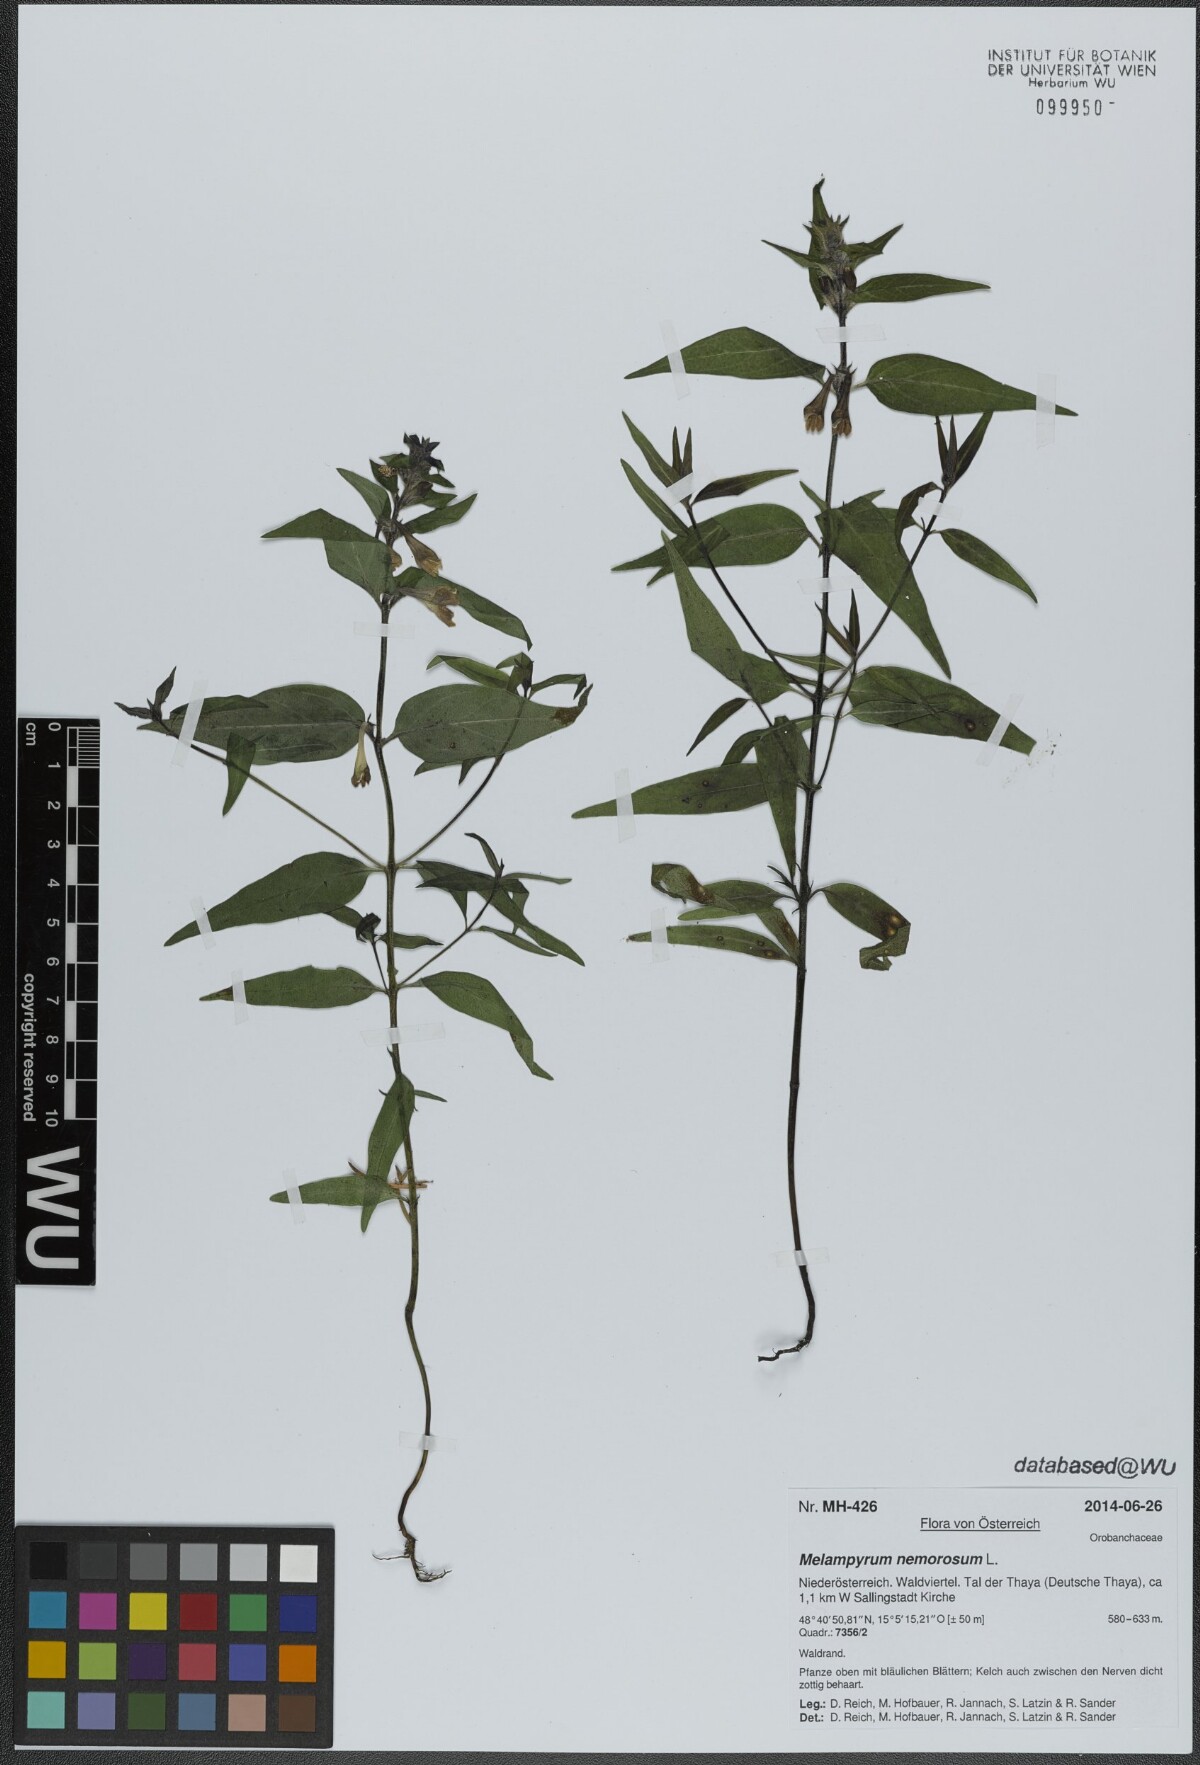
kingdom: Plantae
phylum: Tracheophyta
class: Magnoliopsida
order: Lamiales
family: Orobanchaceae
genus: Melampyrum
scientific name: Melampyrum nemorosum
